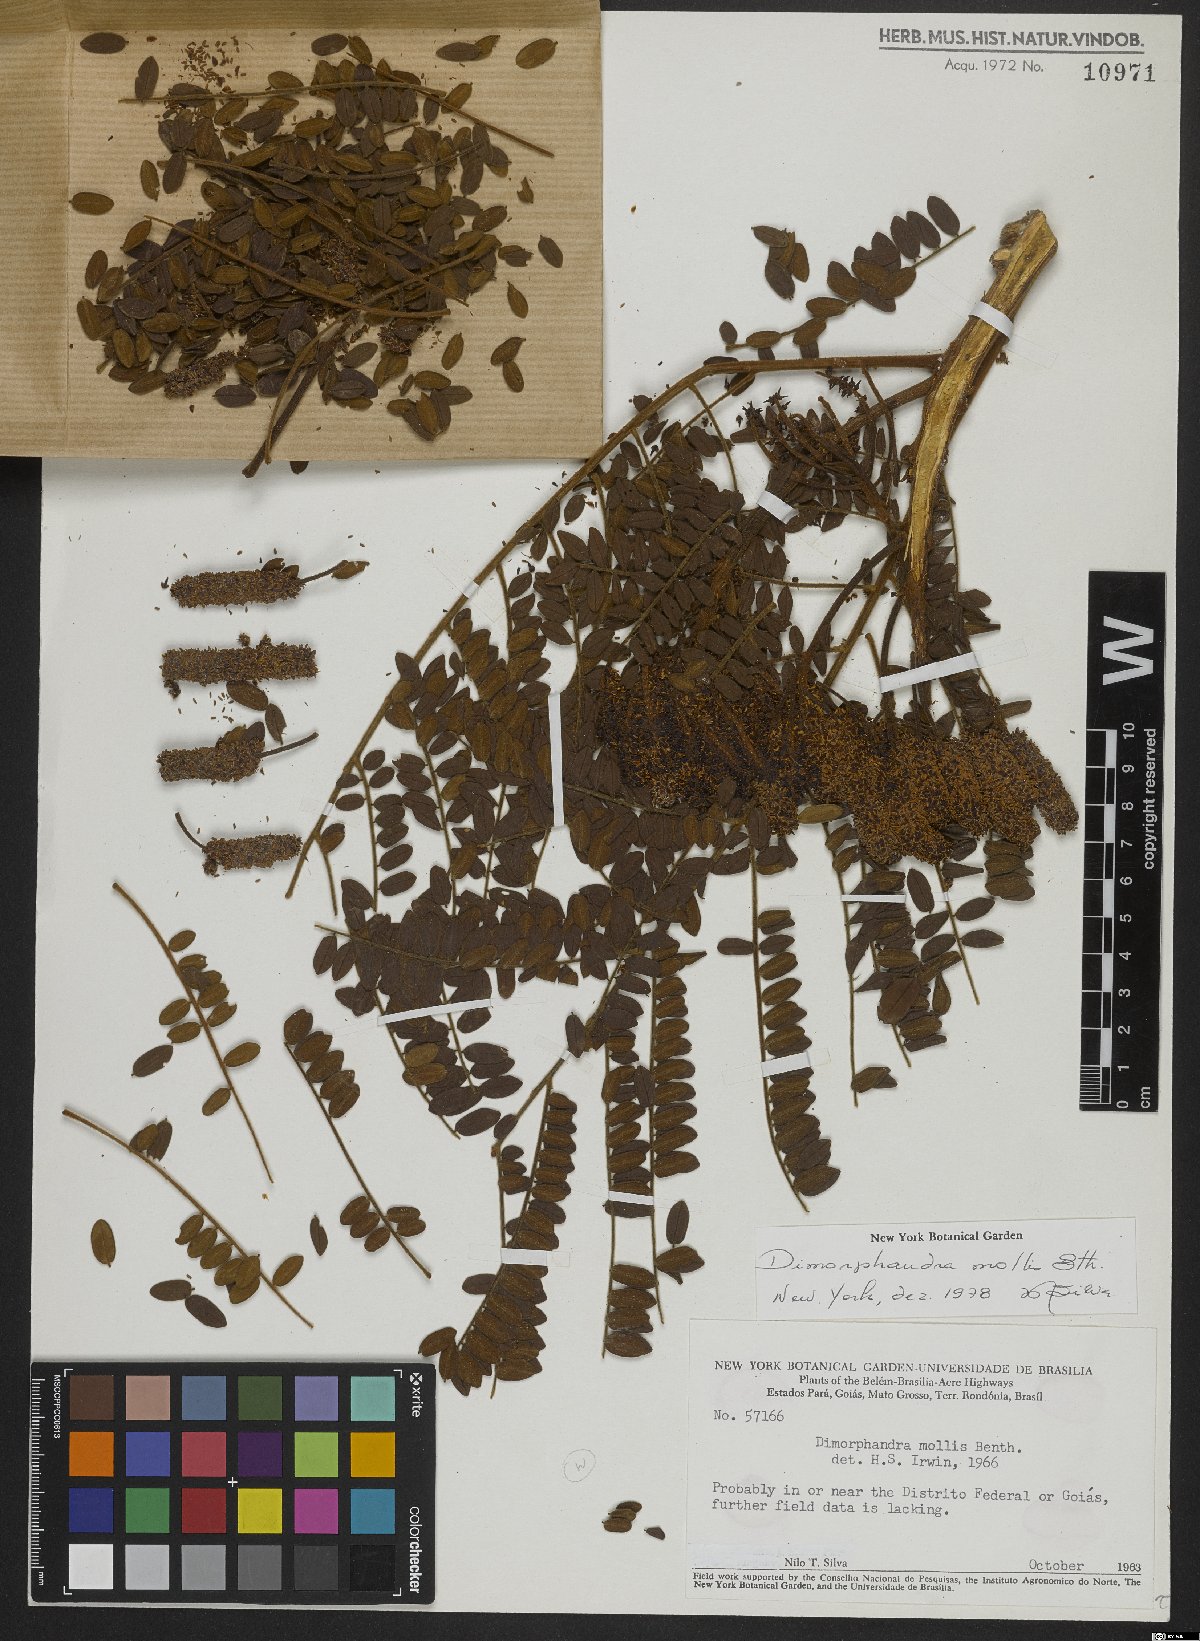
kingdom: Plantae
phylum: Tracheophyta
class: Magnoliopsida
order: Fabales
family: Fabaceae
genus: Dimorphandra
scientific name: Dimorphandra mollis
